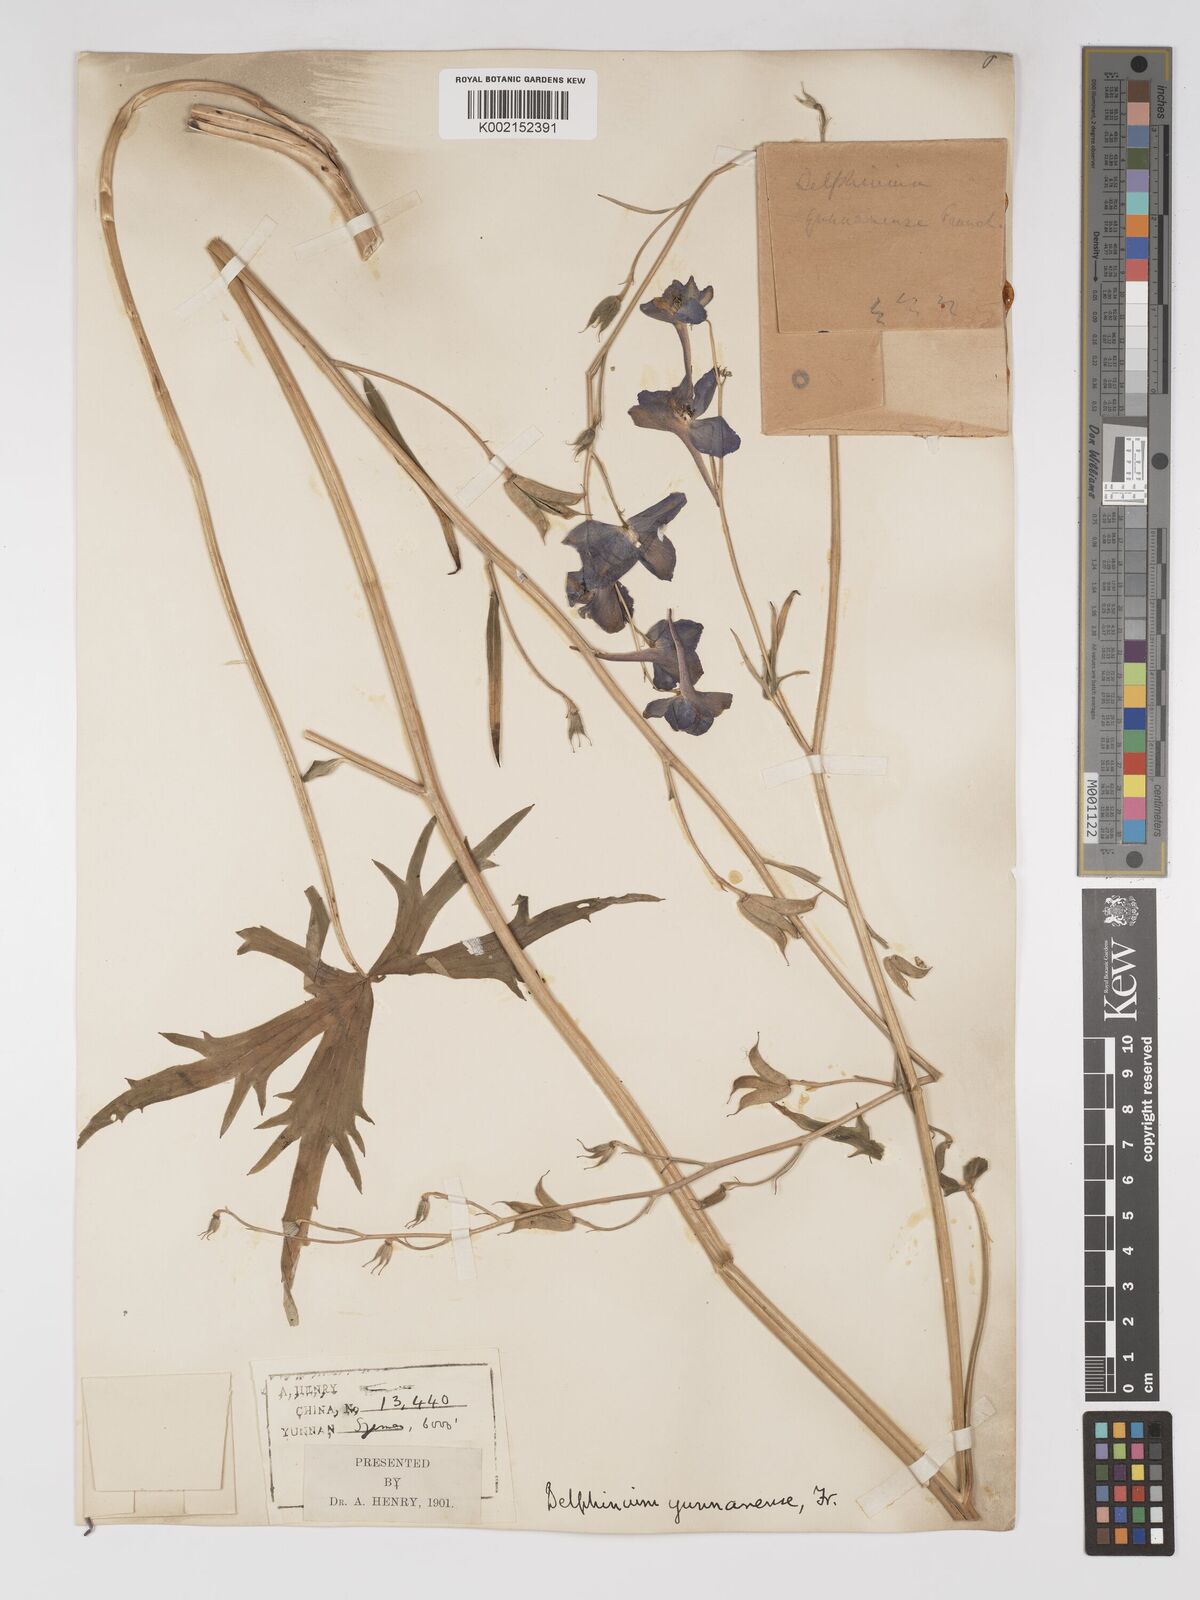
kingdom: Plantae
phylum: Tracheophyta
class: Magnoliopsida
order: Ranunculales
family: Ranunculaceae
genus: Delphinium
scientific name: Delphinium yunnanense
